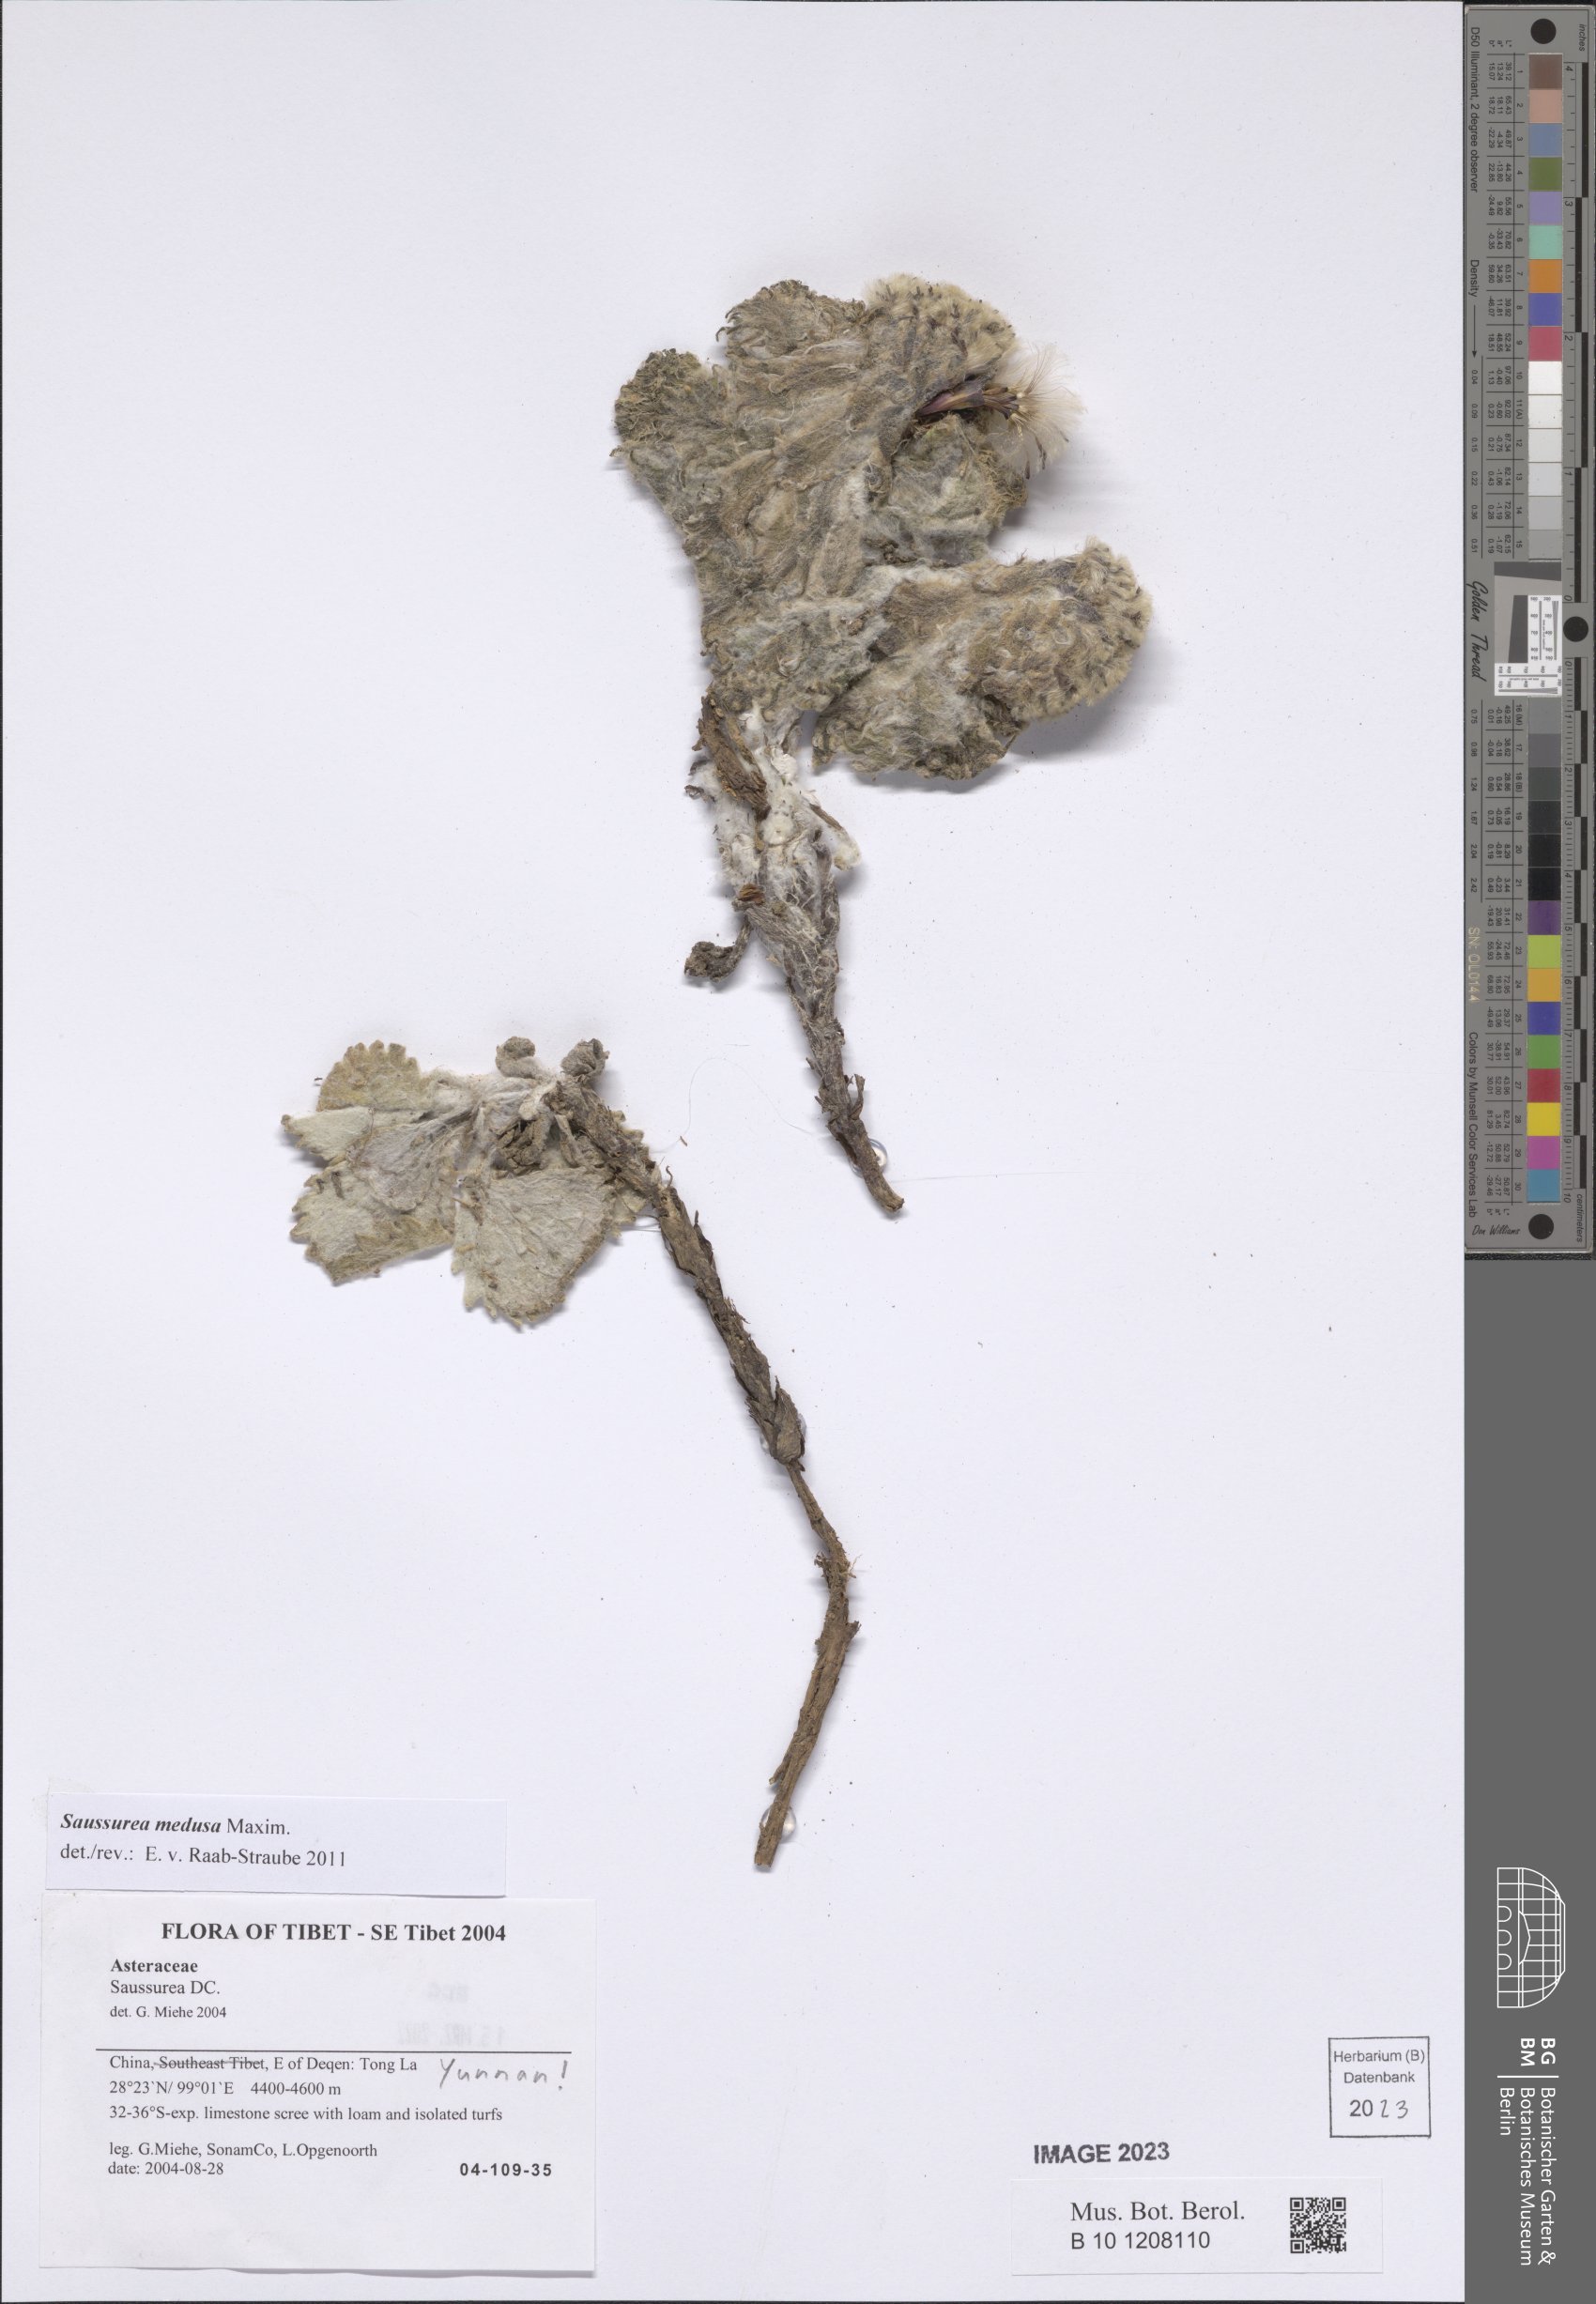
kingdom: Plantae
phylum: Tracheophyta
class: Magnoliopsida
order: Asterales
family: Asteraceae
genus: Saussurea
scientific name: Saussurea medusa
